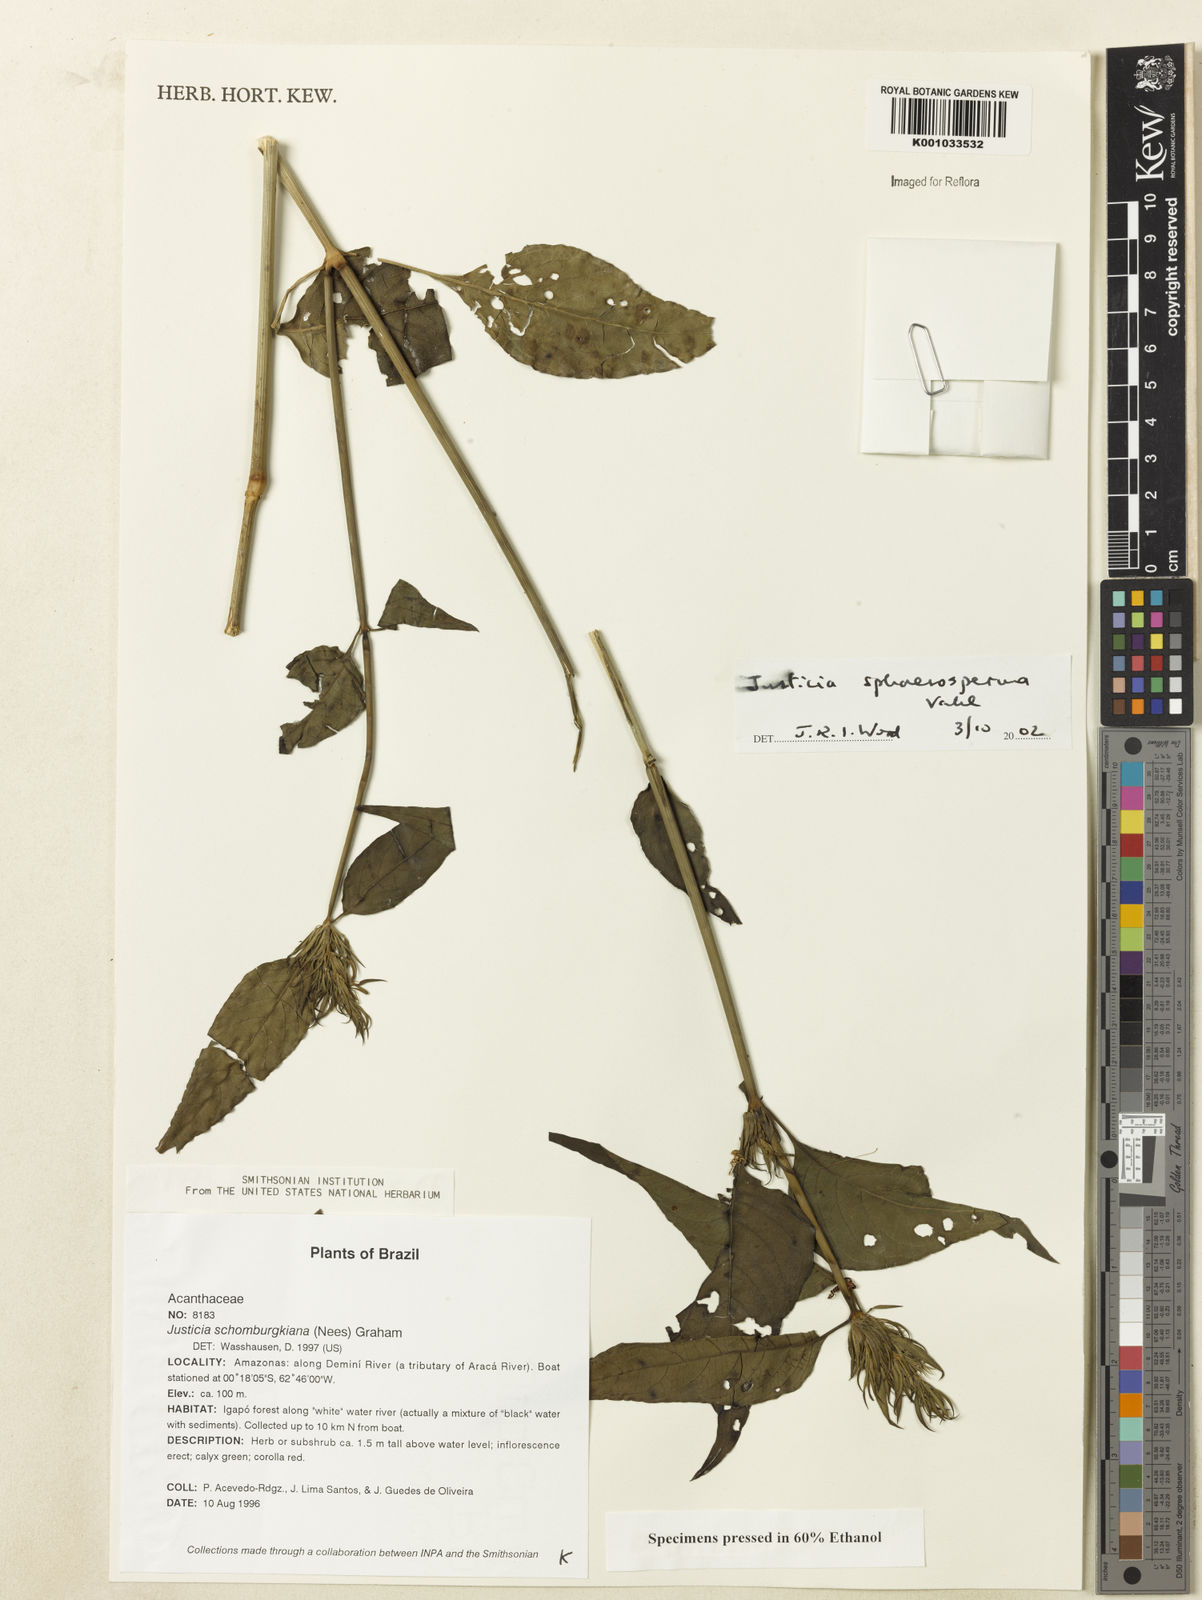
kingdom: Plantae
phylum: Tracheophyta
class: Magnoliopsida
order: Lamiales
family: Acanthaceae
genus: Justicia
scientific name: Justicia sphaerosperma
